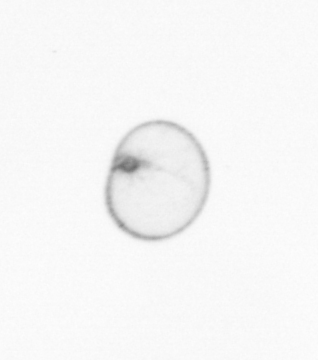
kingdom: Chromista
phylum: Myzozoa
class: Dinophyceae
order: Noctilucales
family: Noctilucaceae
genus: Noctiluca
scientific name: Noctiluca scintillans
